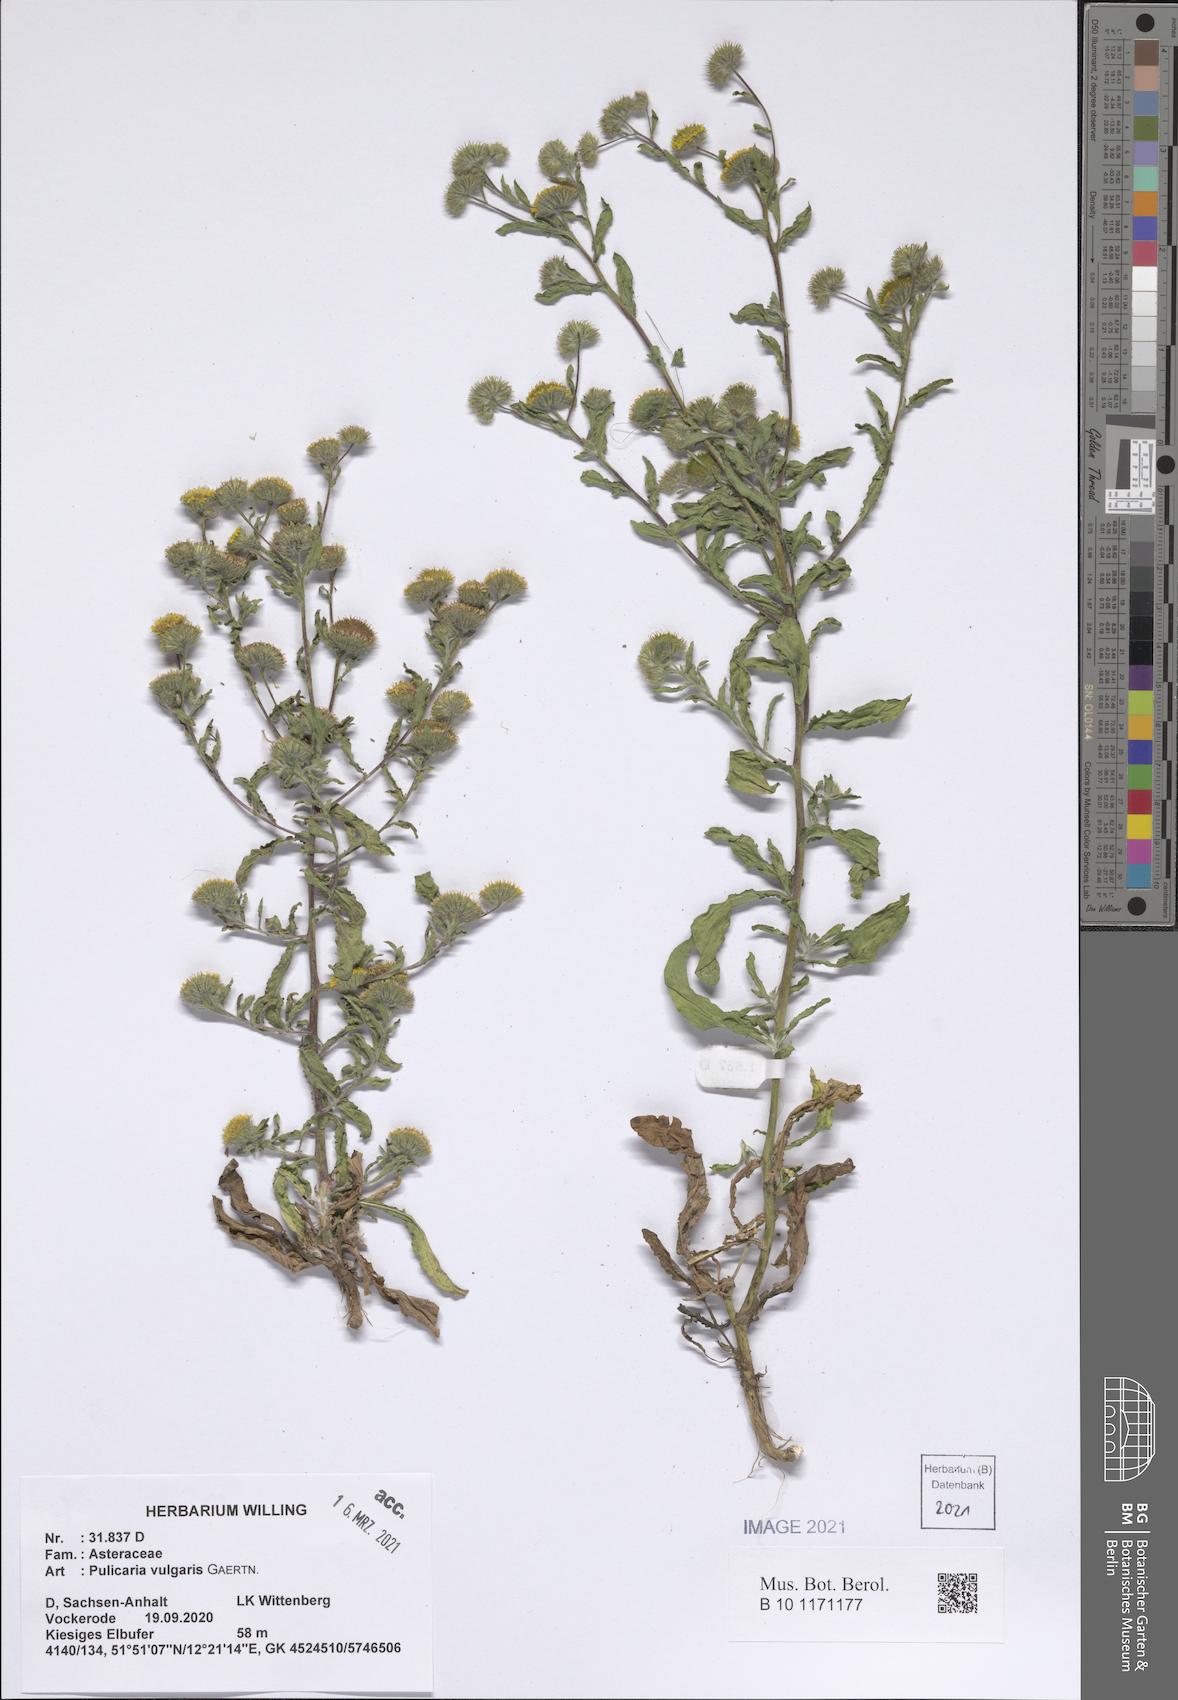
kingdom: Plantae
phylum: Tracheophyta
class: Magnoliopsida
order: Asterales
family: Asteraceae
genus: Pulicaria
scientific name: Pulicaria dysenterica
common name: Common fleabane
